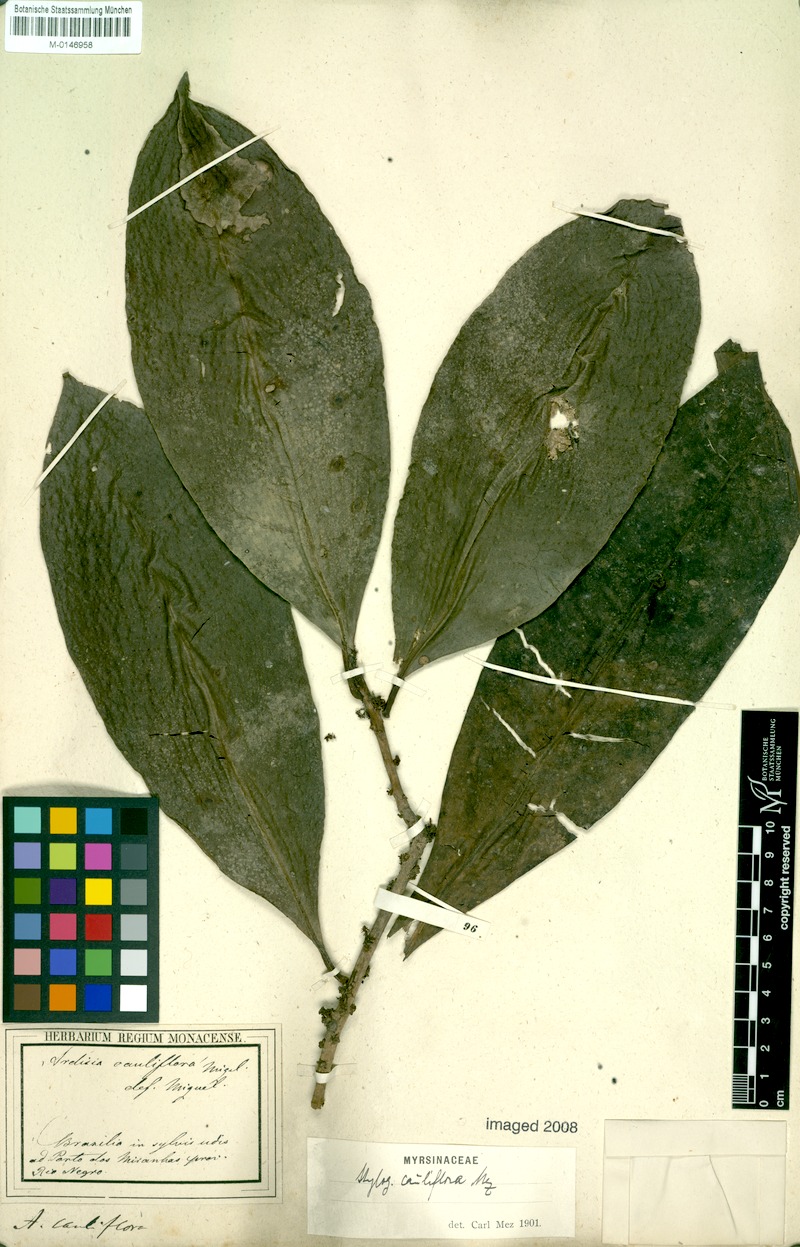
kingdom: Plantae
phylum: Tracheophyta
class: Magnoliopsida
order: Ericales
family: Primulaceae
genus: Stylogyne
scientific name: Stylogyne ardisioides
